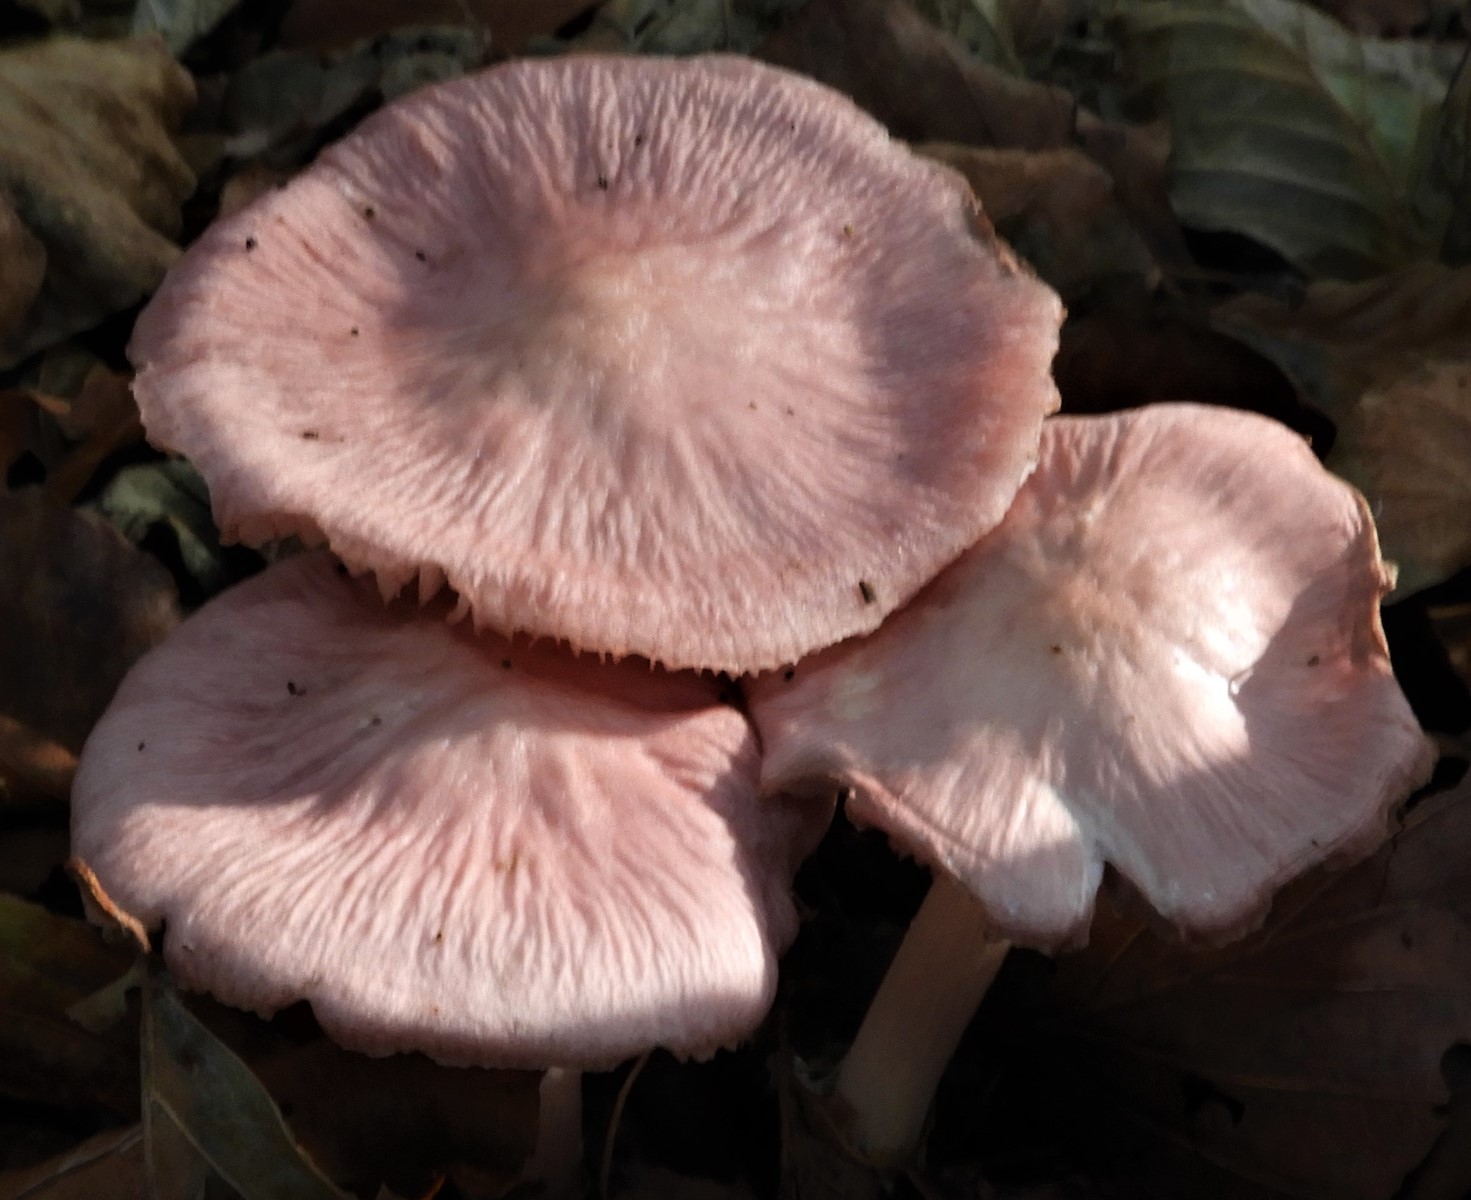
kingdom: Fungi
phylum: Basidiomycota
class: Agaricomycetes
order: Agaricales
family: Mycenaceae
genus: Mycena
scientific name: Mycena rosea
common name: rosa huesvamp
